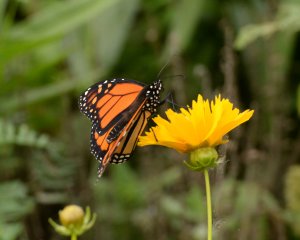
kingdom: Animalia
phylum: Arthropoda
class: Insecta
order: Lepidoptera
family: Nymphalidae
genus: Danaus
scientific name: Danaus plexippus
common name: Monarch
